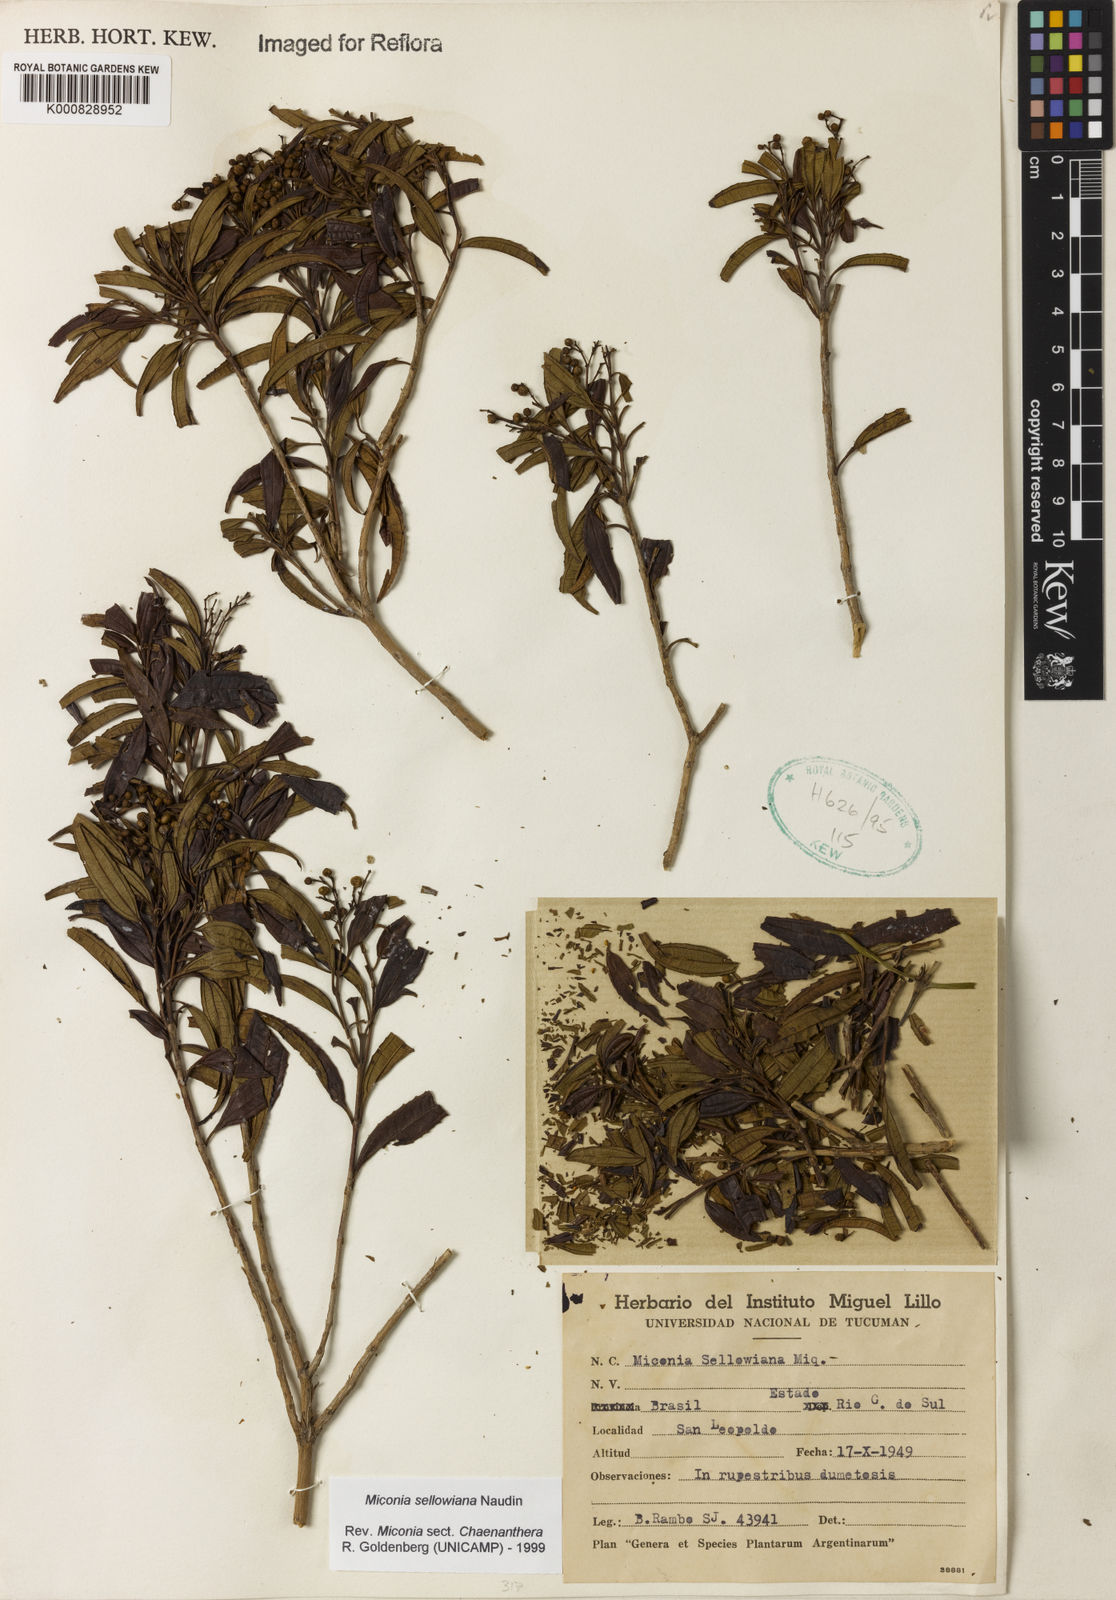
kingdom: Plantae
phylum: Tracheophyta
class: Magnoliopsida
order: Myrtales
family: Melastomataceae
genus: Miconia
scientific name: Miconia sellowiana
